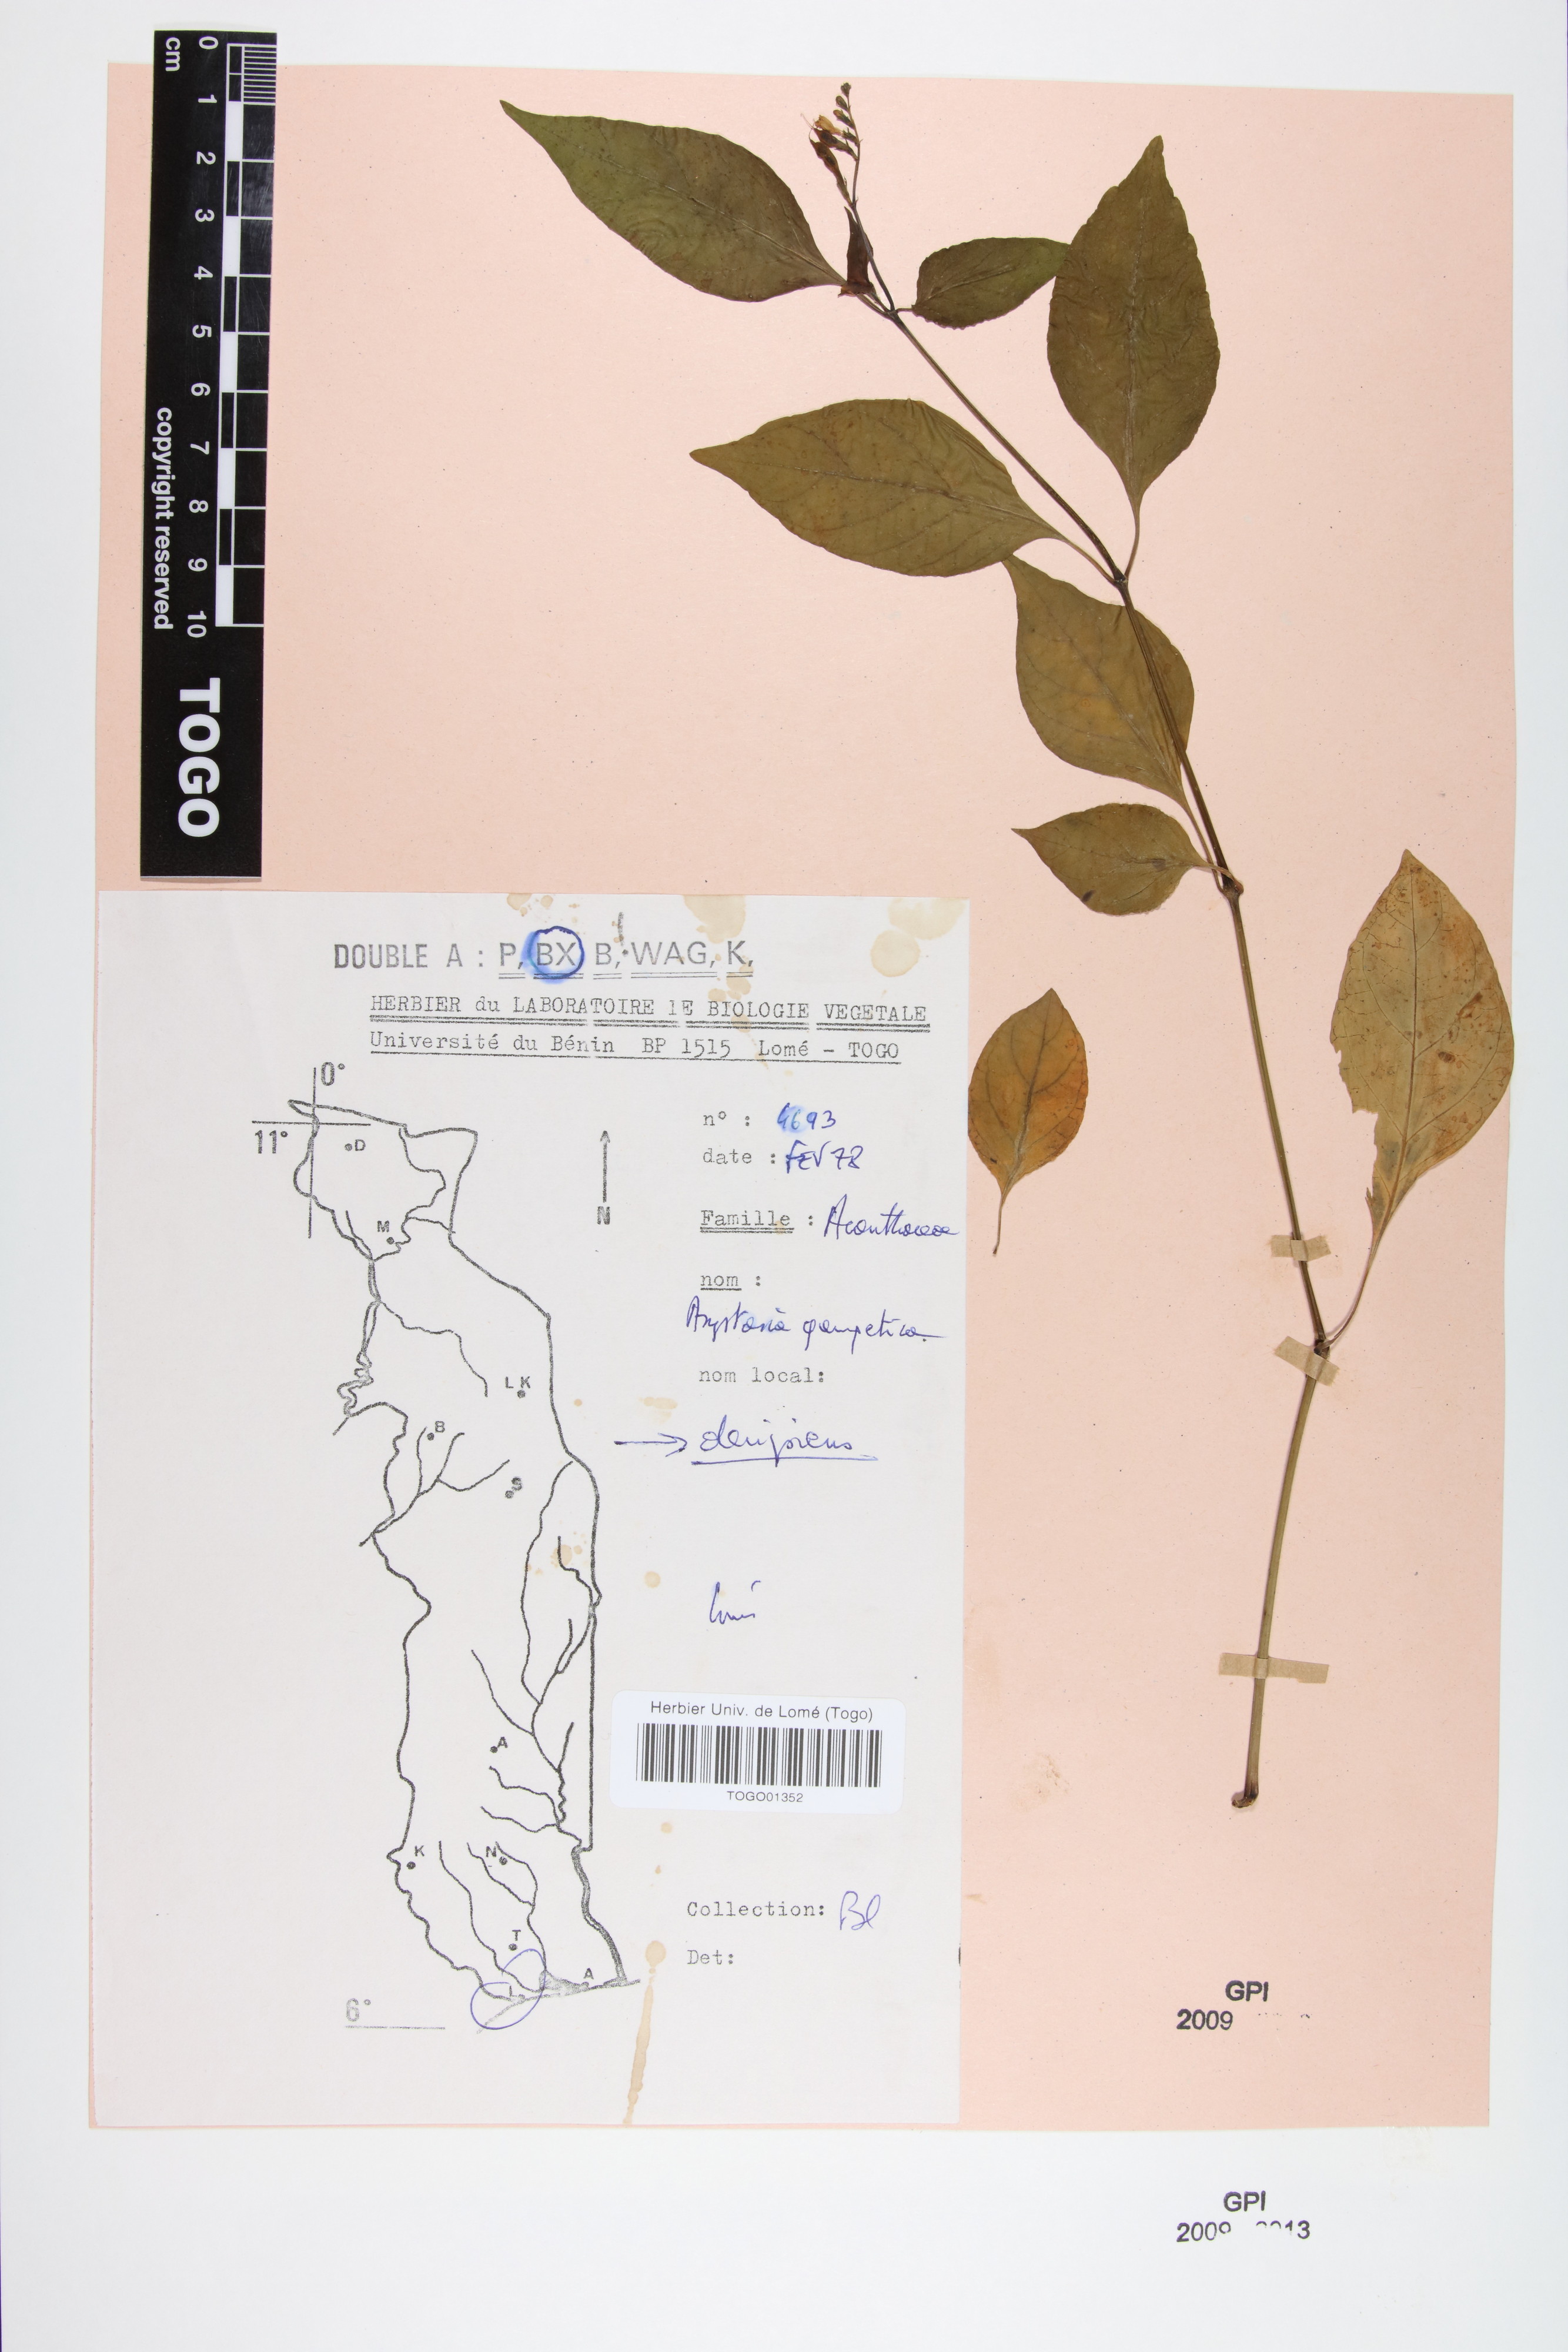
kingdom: Plantae
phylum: Tracheophyta
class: Magnoliopsida
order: Lamiales
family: Acanthaceae
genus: Asystasia
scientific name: Asystasia gangetica
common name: Chinese violet
